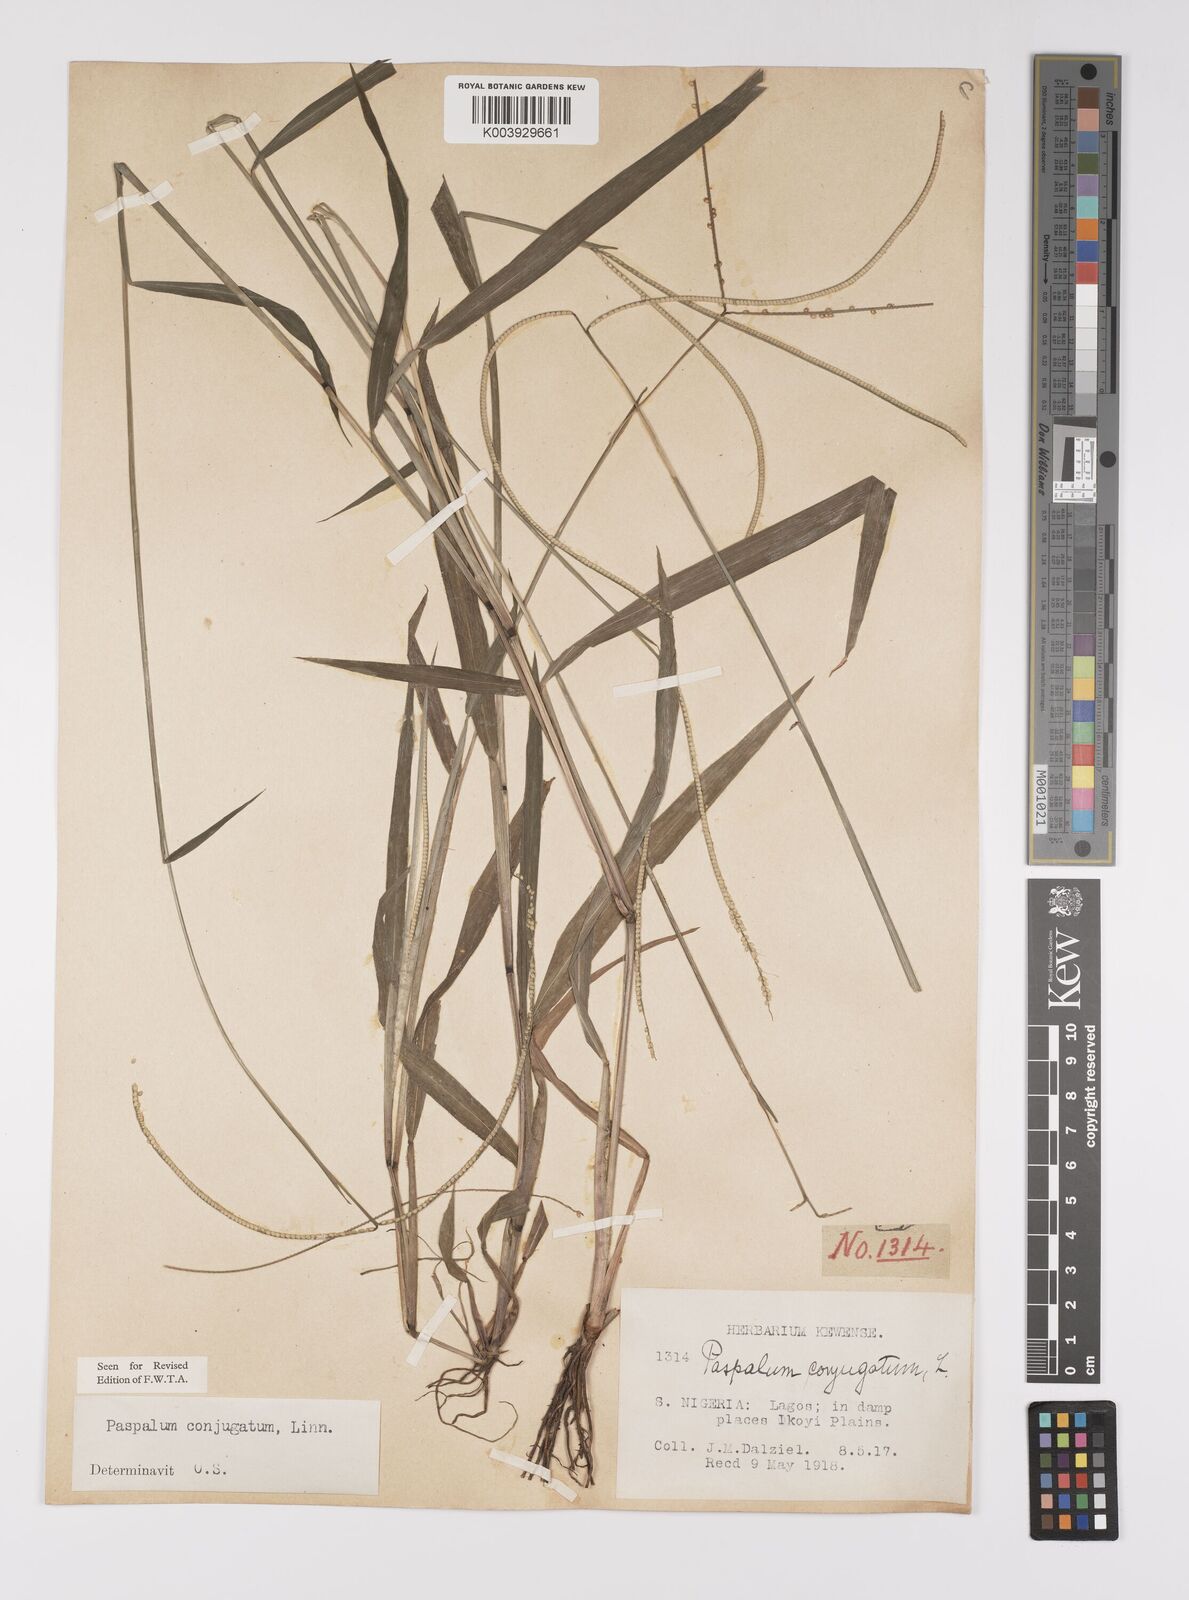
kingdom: Plantae
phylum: Tracheophyta
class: Liliopsida
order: Poales
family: Poaceae
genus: Paspalum
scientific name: Paspalum conjugatum
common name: Hilograss
